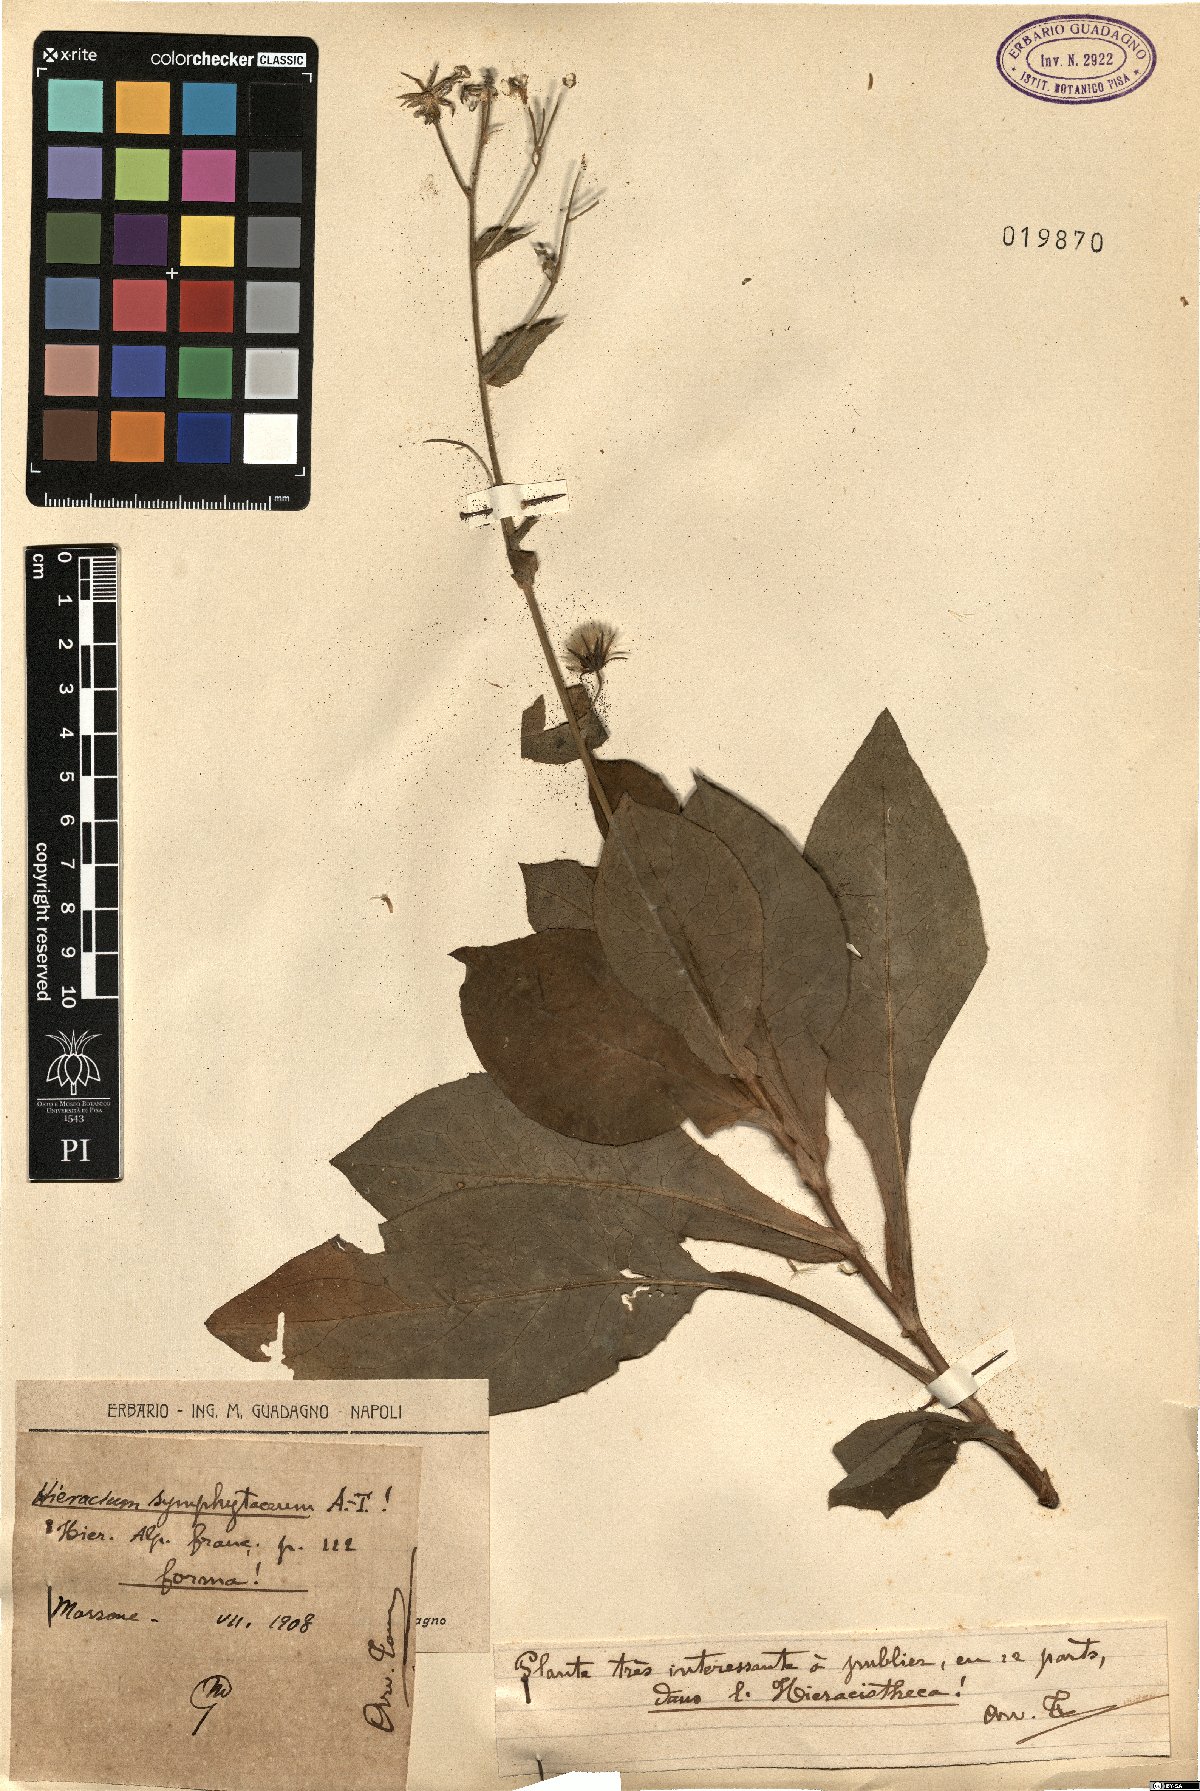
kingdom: Plantae
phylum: Tracheophyta
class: Magnoliopsida
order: Asterales
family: Asteraceae
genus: Hieracium
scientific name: Hieracium symphytaceum
